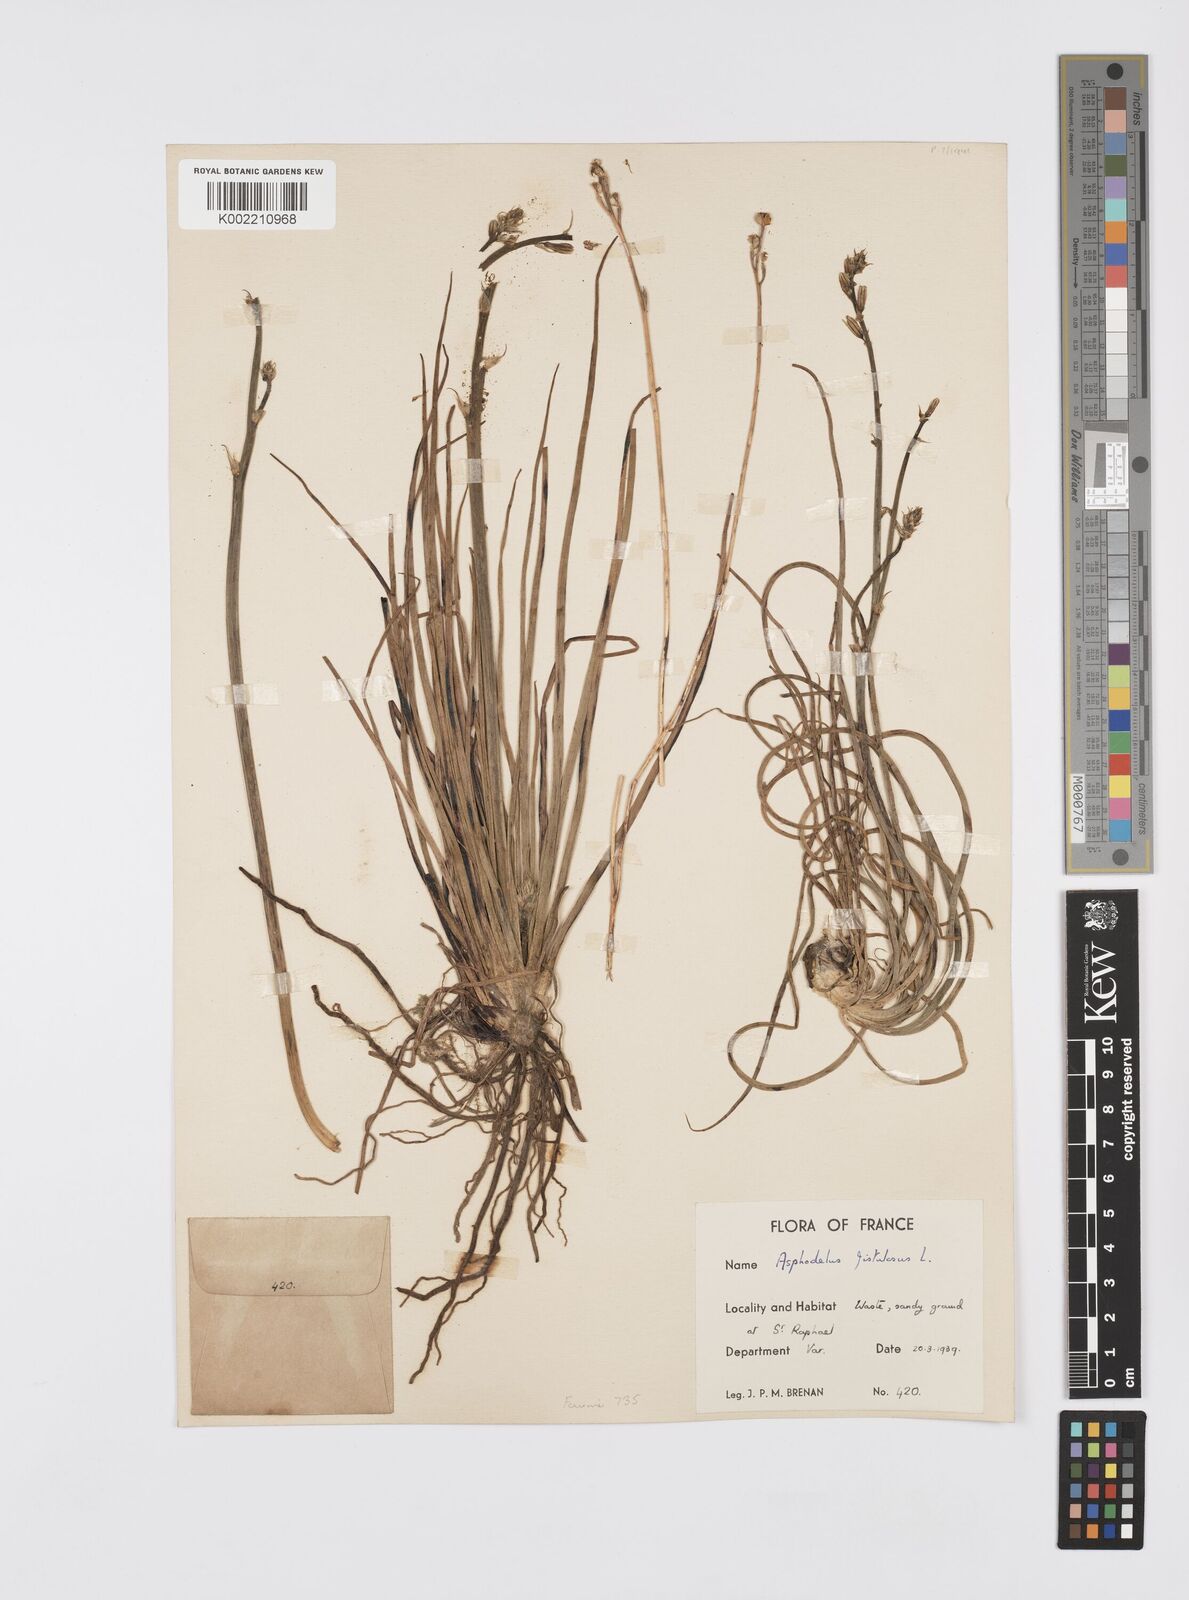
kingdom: Plantae
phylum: Tracheophyta
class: Liliopsida
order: Asparagales
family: Asphodelaceae
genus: Asphodelus
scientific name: Asphodelus fistulosus
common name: Onionweed
